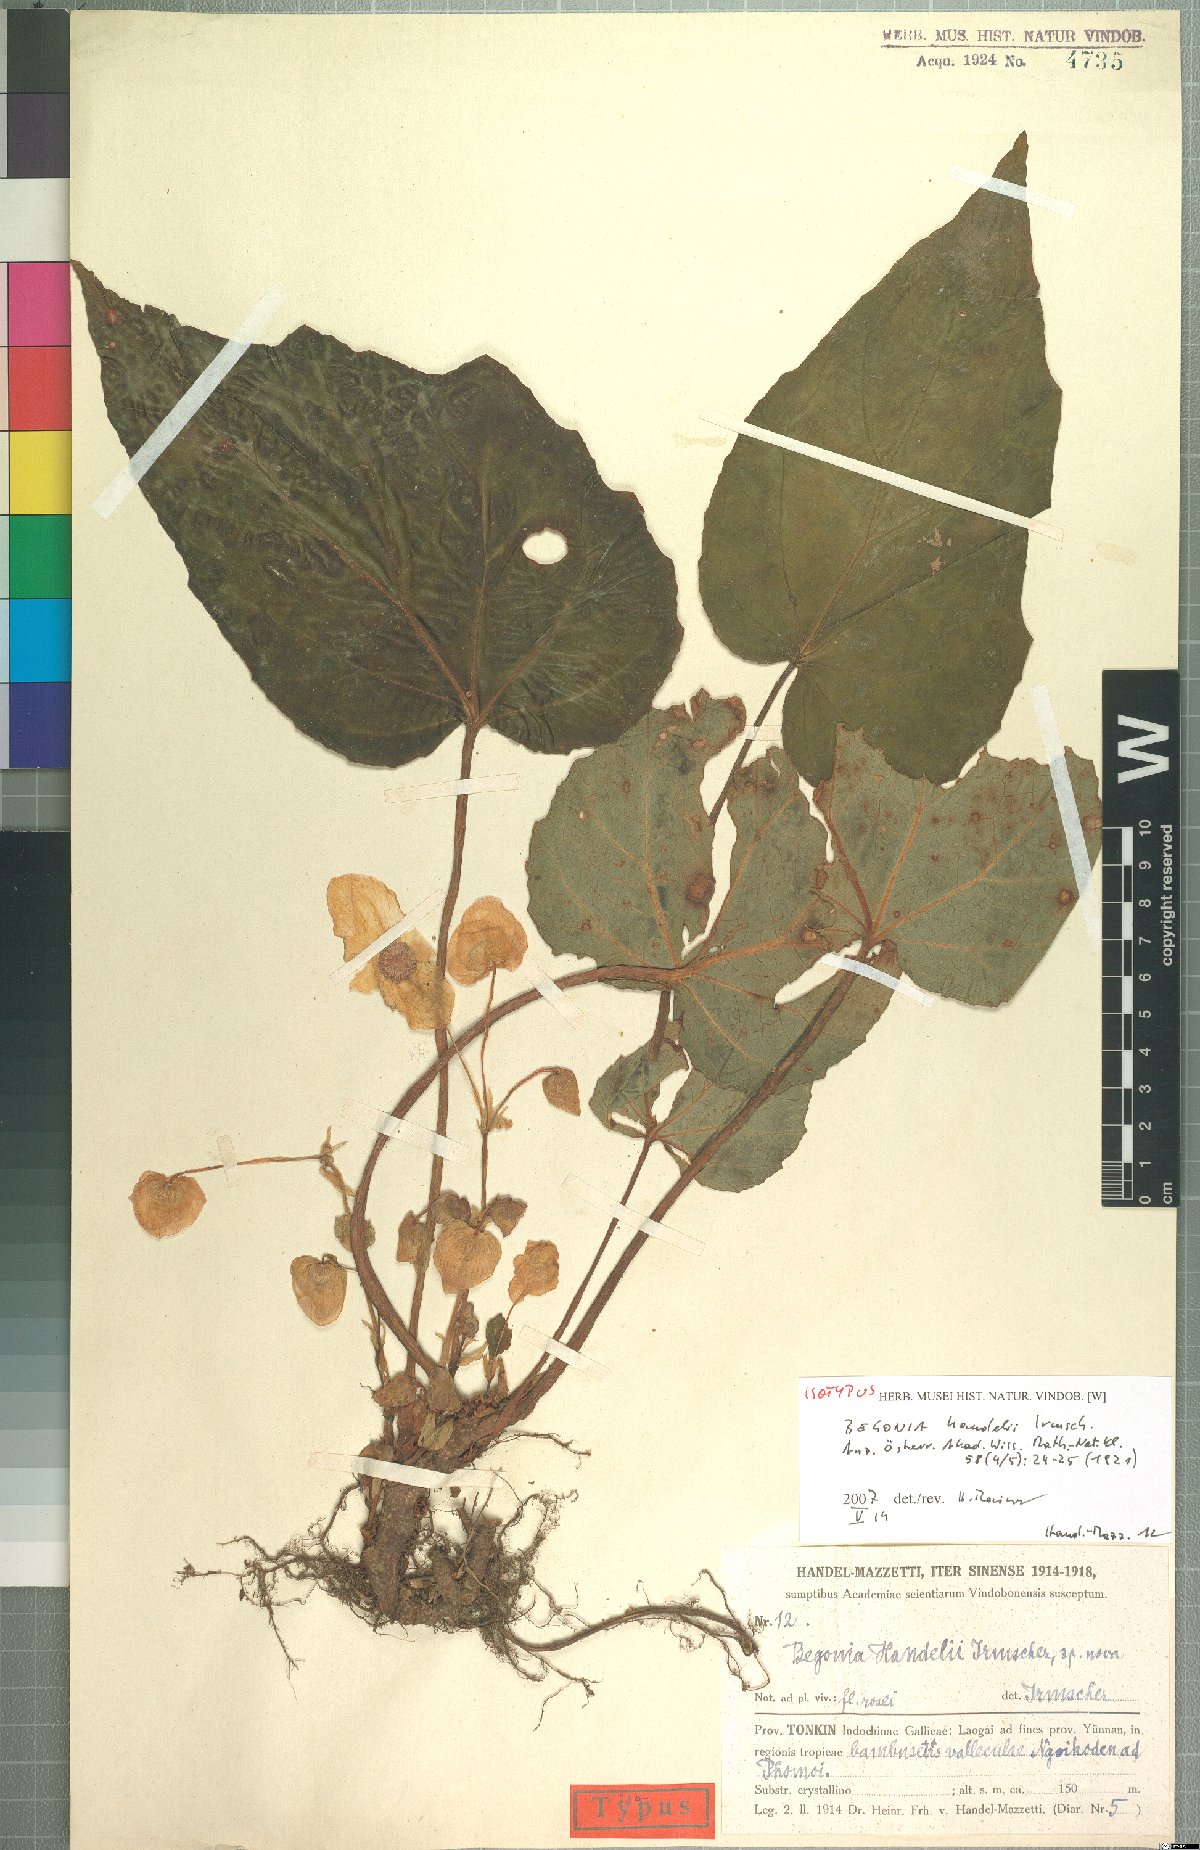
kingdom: Plantae
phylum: Tracheophyta
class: Magnoliopsida
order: Cucurbitales
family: Begoniaceae
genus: Begonia
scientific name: Begonia handelii
